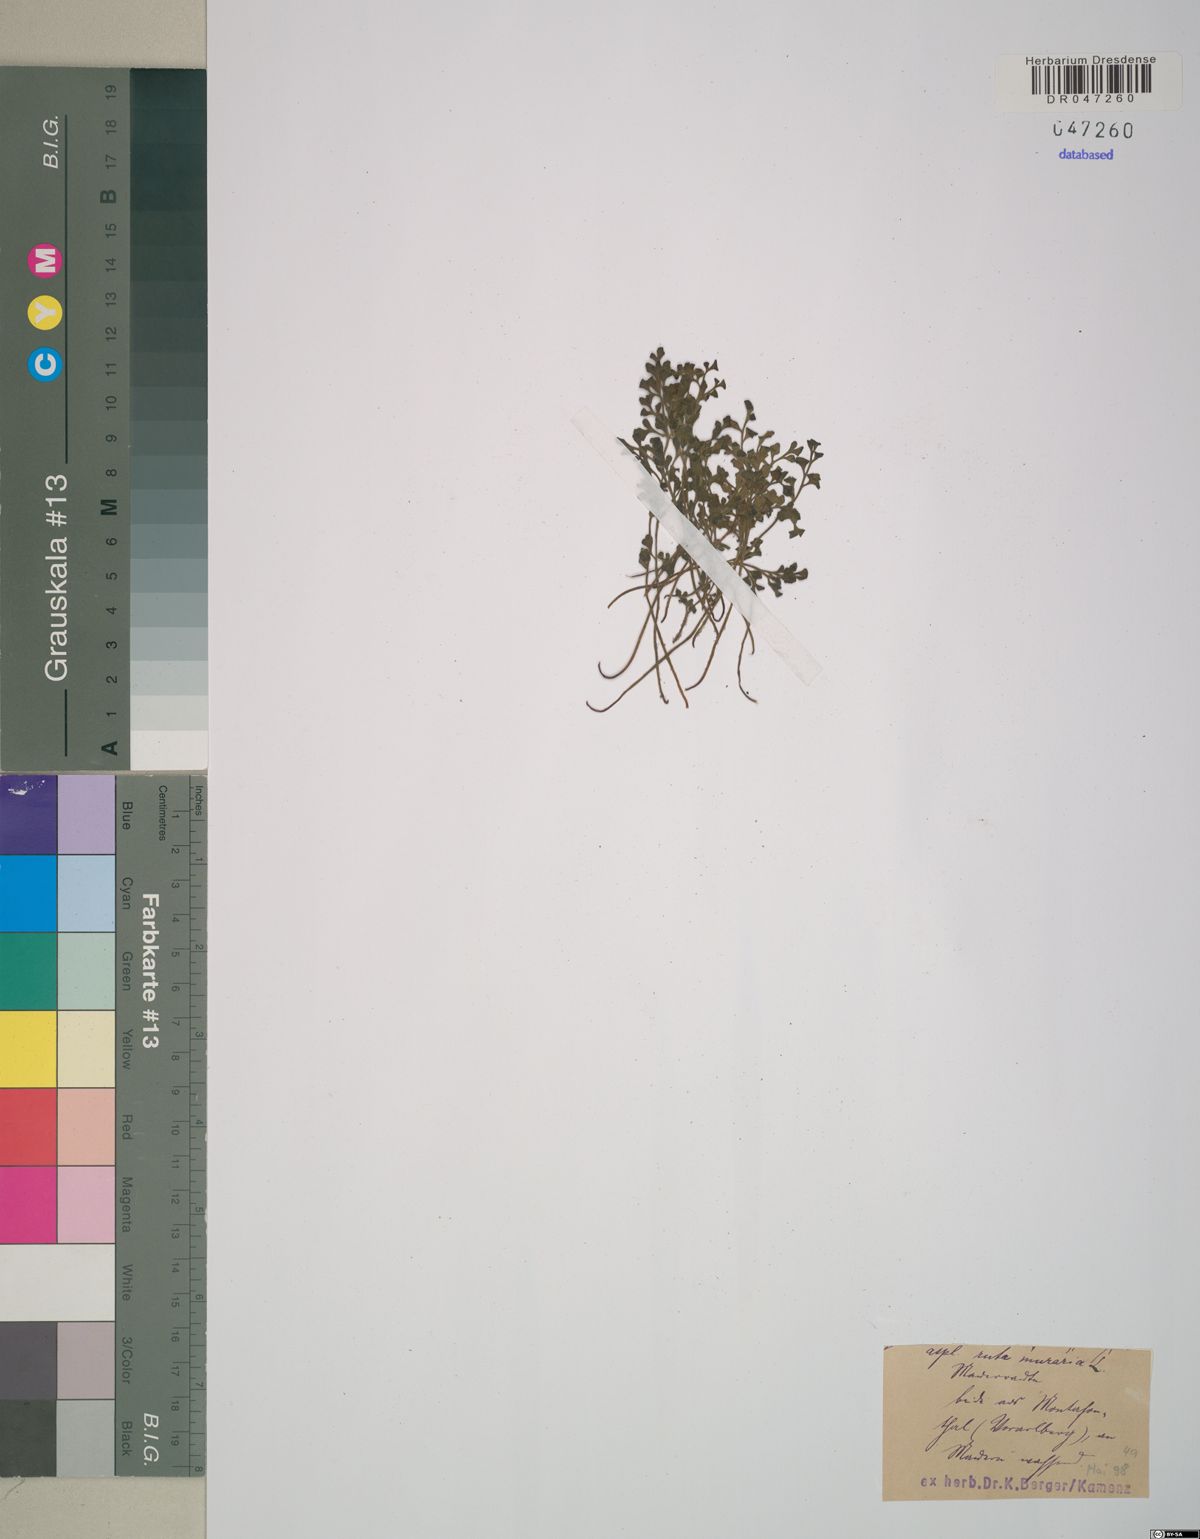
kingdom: Plantae
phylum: Tracheophyta
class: Polypodiopsida
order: Polypodiales
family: Aspleniaceae
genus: Asplenium
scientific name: Asplenium ruta-muraria
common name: Wall-rue
